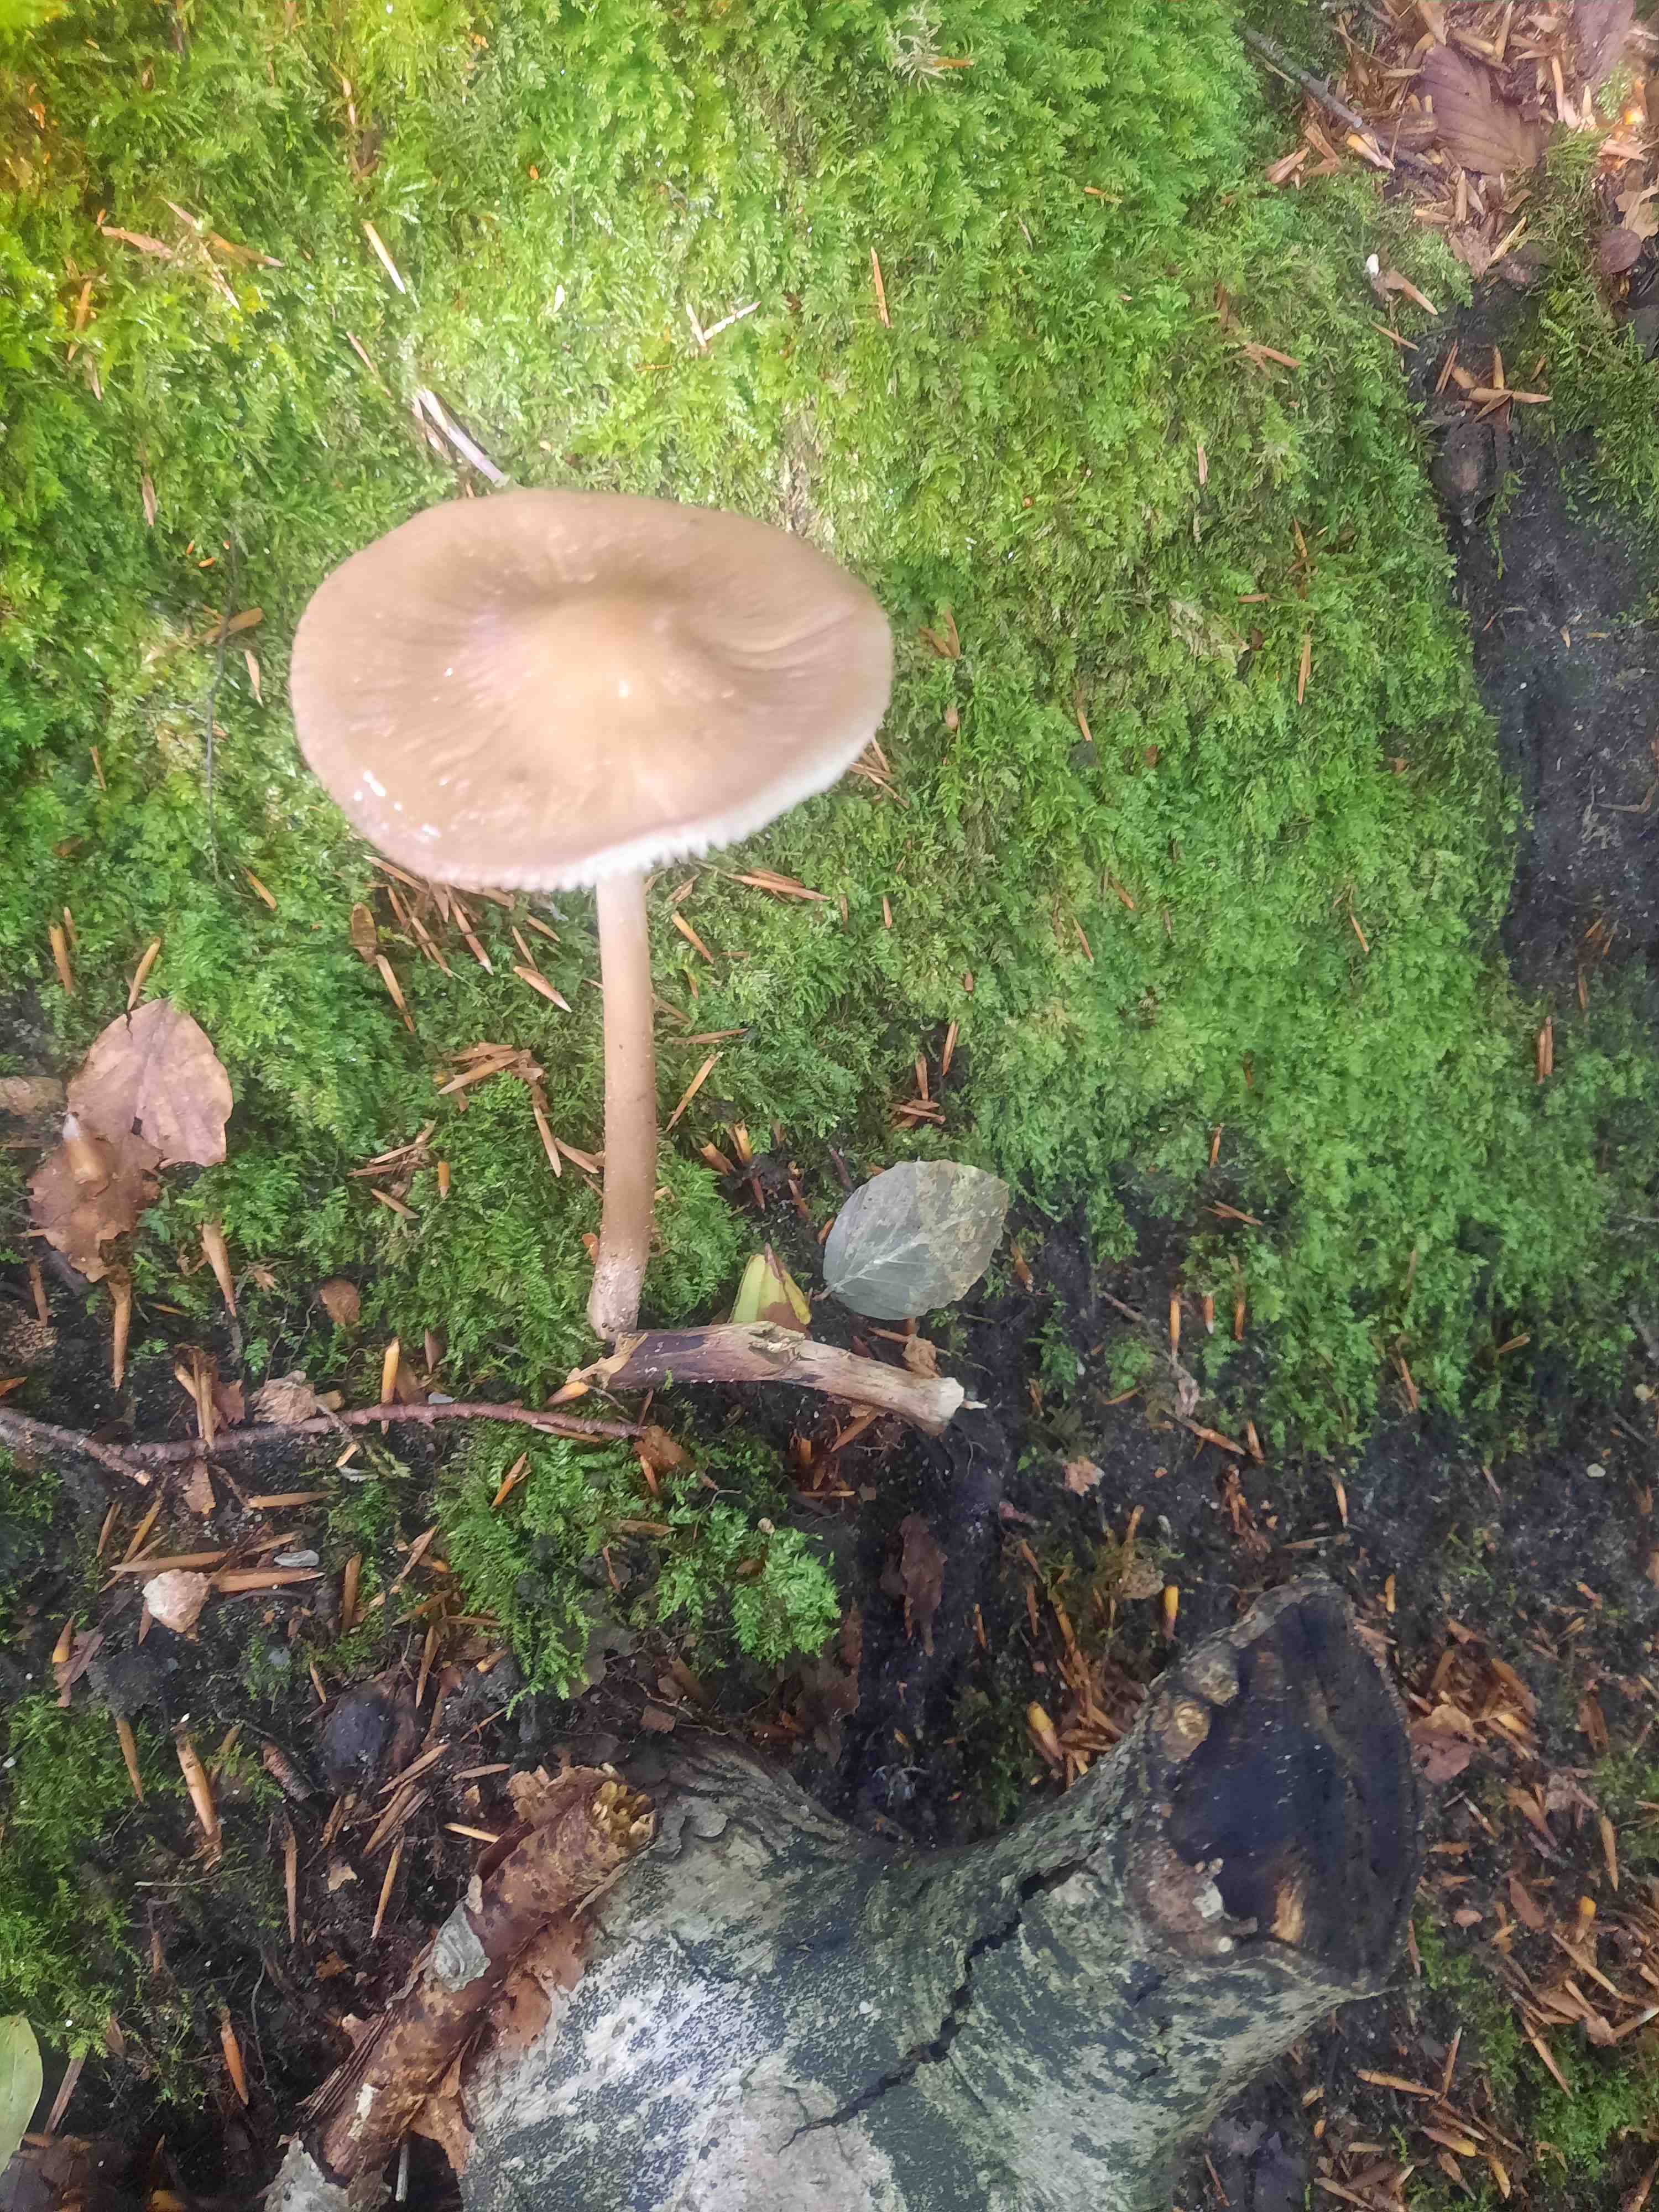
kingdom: Fungi
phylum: Basidiomycota
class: Agaricomycetes
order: Agaricales
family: Physalacriaceae
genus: Hymenopellis
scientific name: Hymenopellis radicata
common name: almindelig pælerodshat
